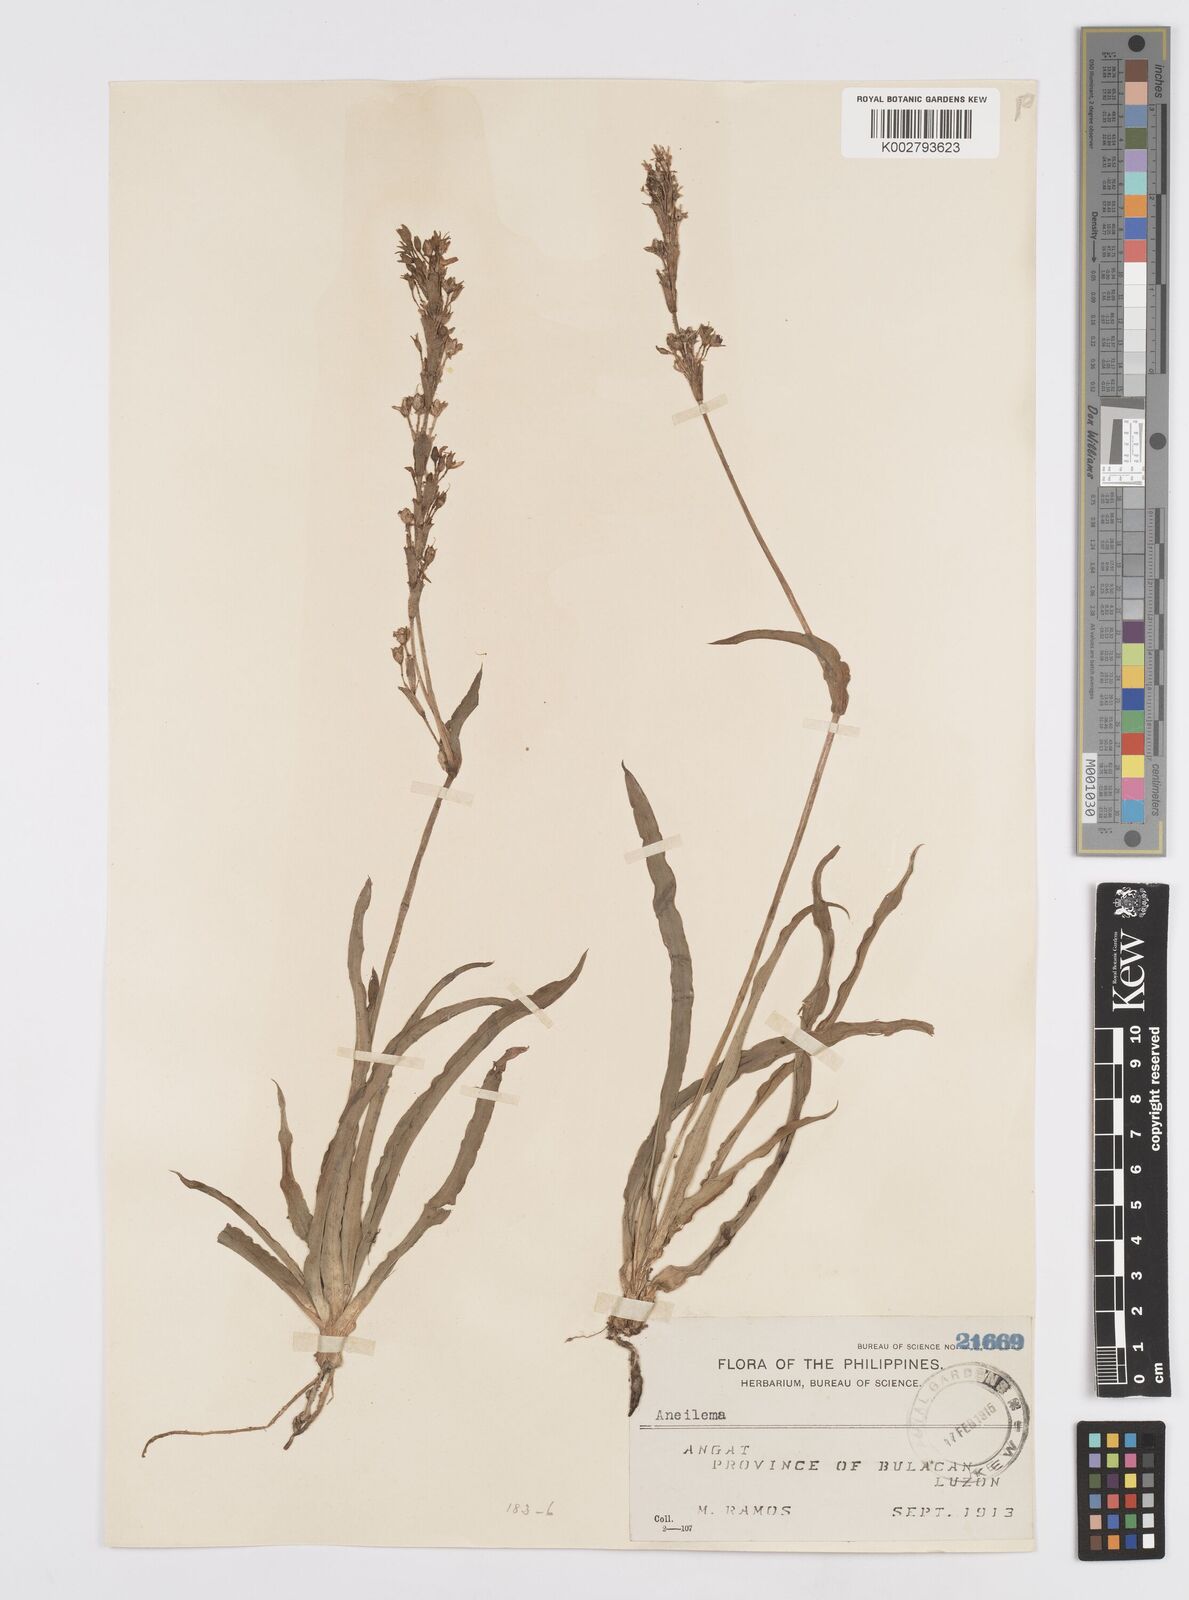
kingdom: Plantae
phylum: Tracheophyta
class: Liliopsida
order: Commelinales
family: Commelinaceae
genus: Murdannia
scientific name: Murdannia edulis
